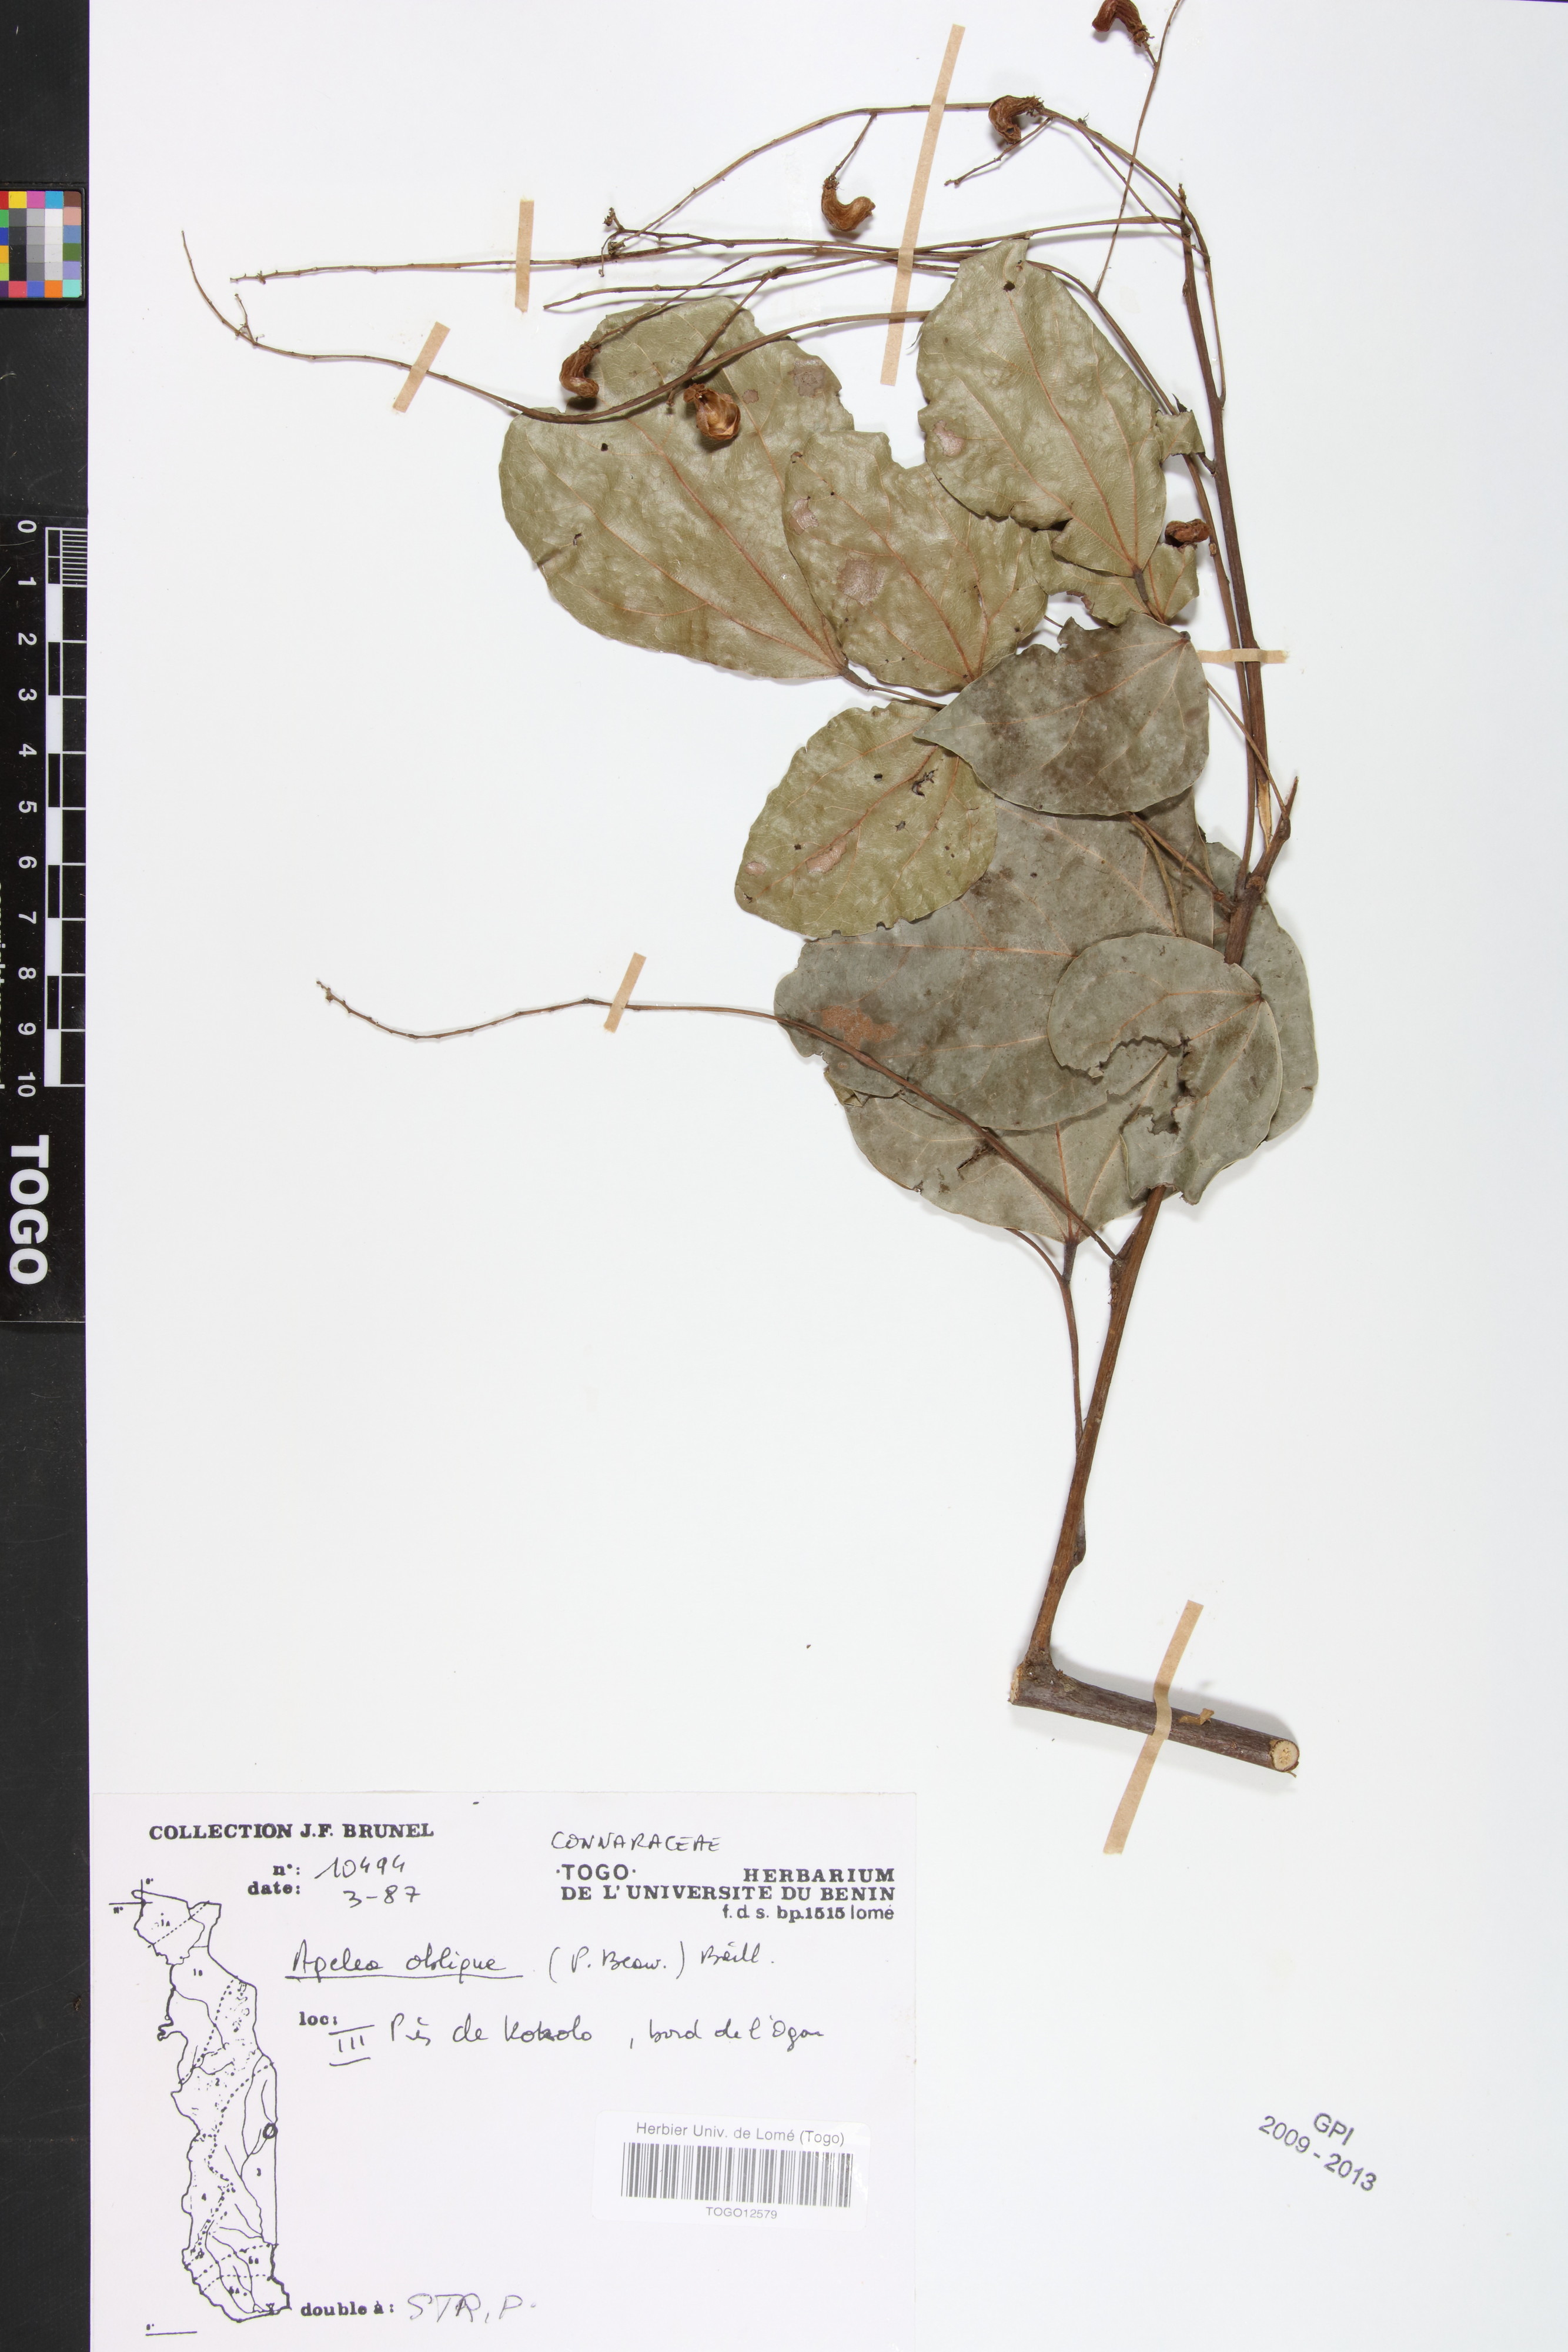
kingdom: Plantae
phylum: Tracheophyta
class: Magnoliopsida
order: Oxalidales
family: Connaraceae
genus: Agelaea
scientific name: Agelaea pentagyna
